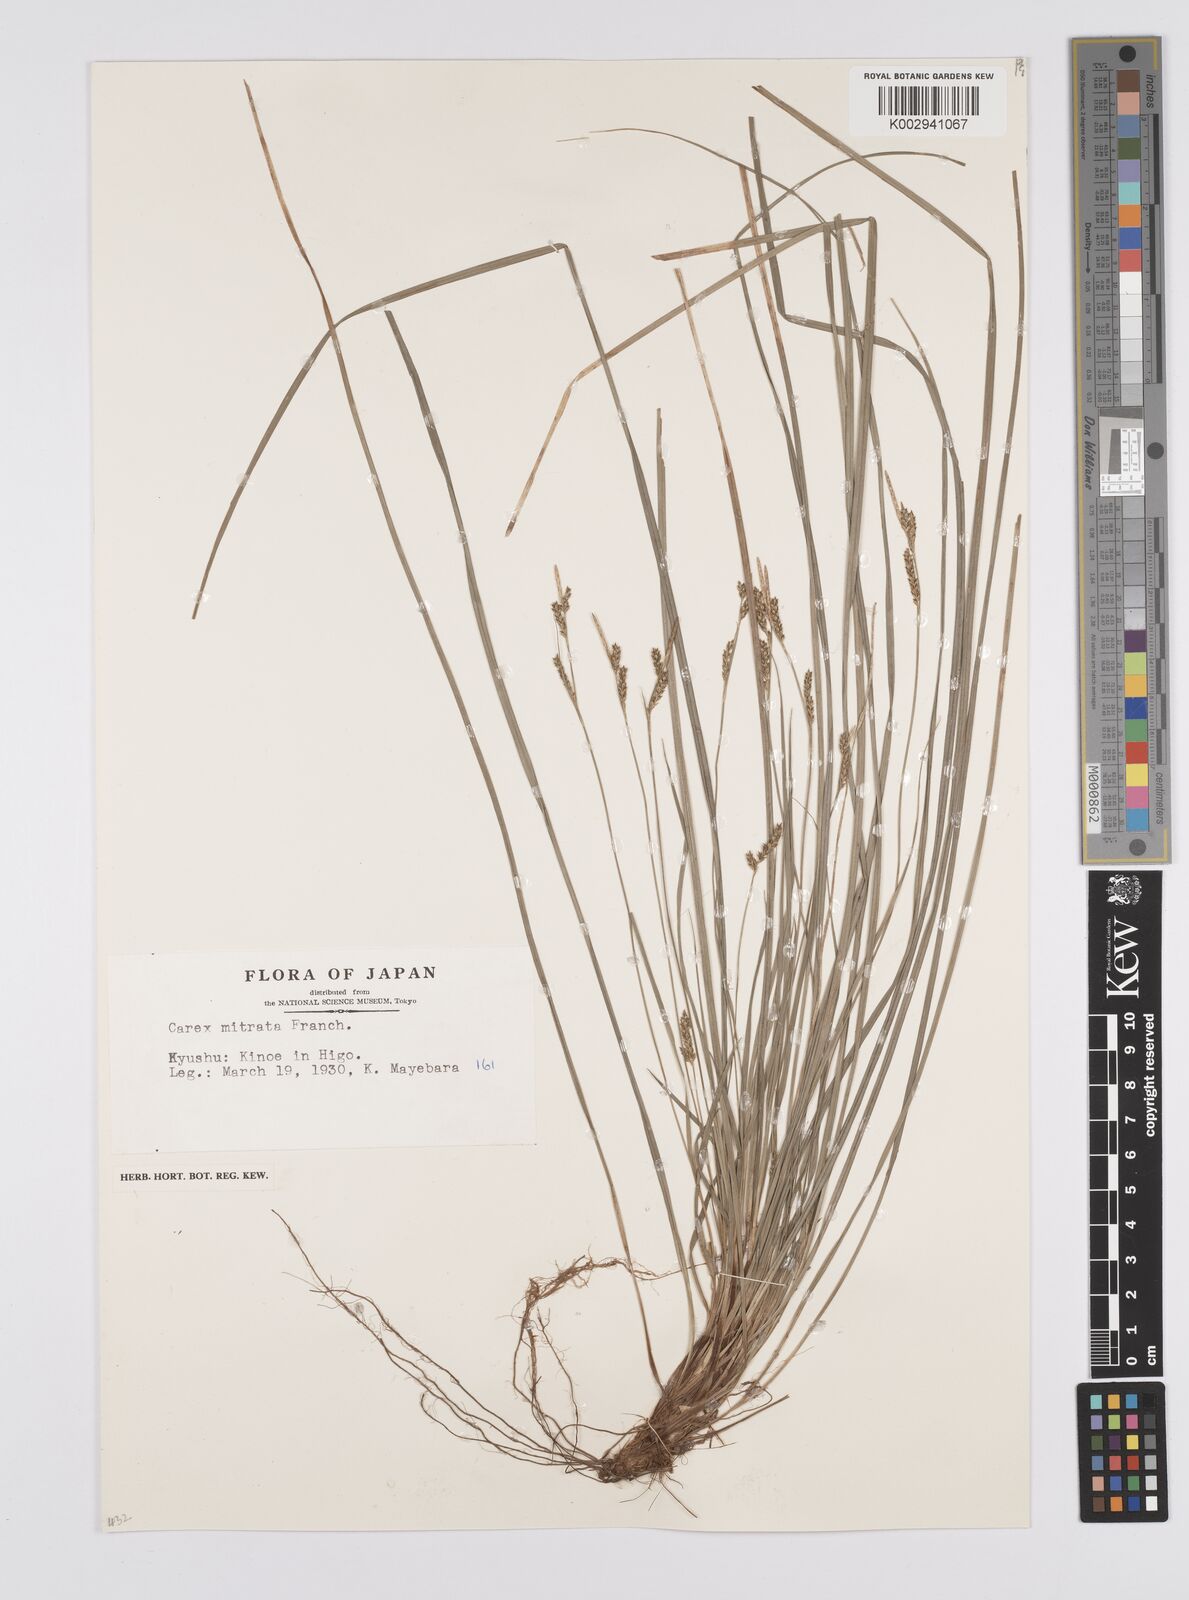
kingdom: Plantae
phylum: Tracheophyta
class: Liliopsida
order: Poales
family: Cyperaceae
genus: Carex
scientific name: Carex mitrata
